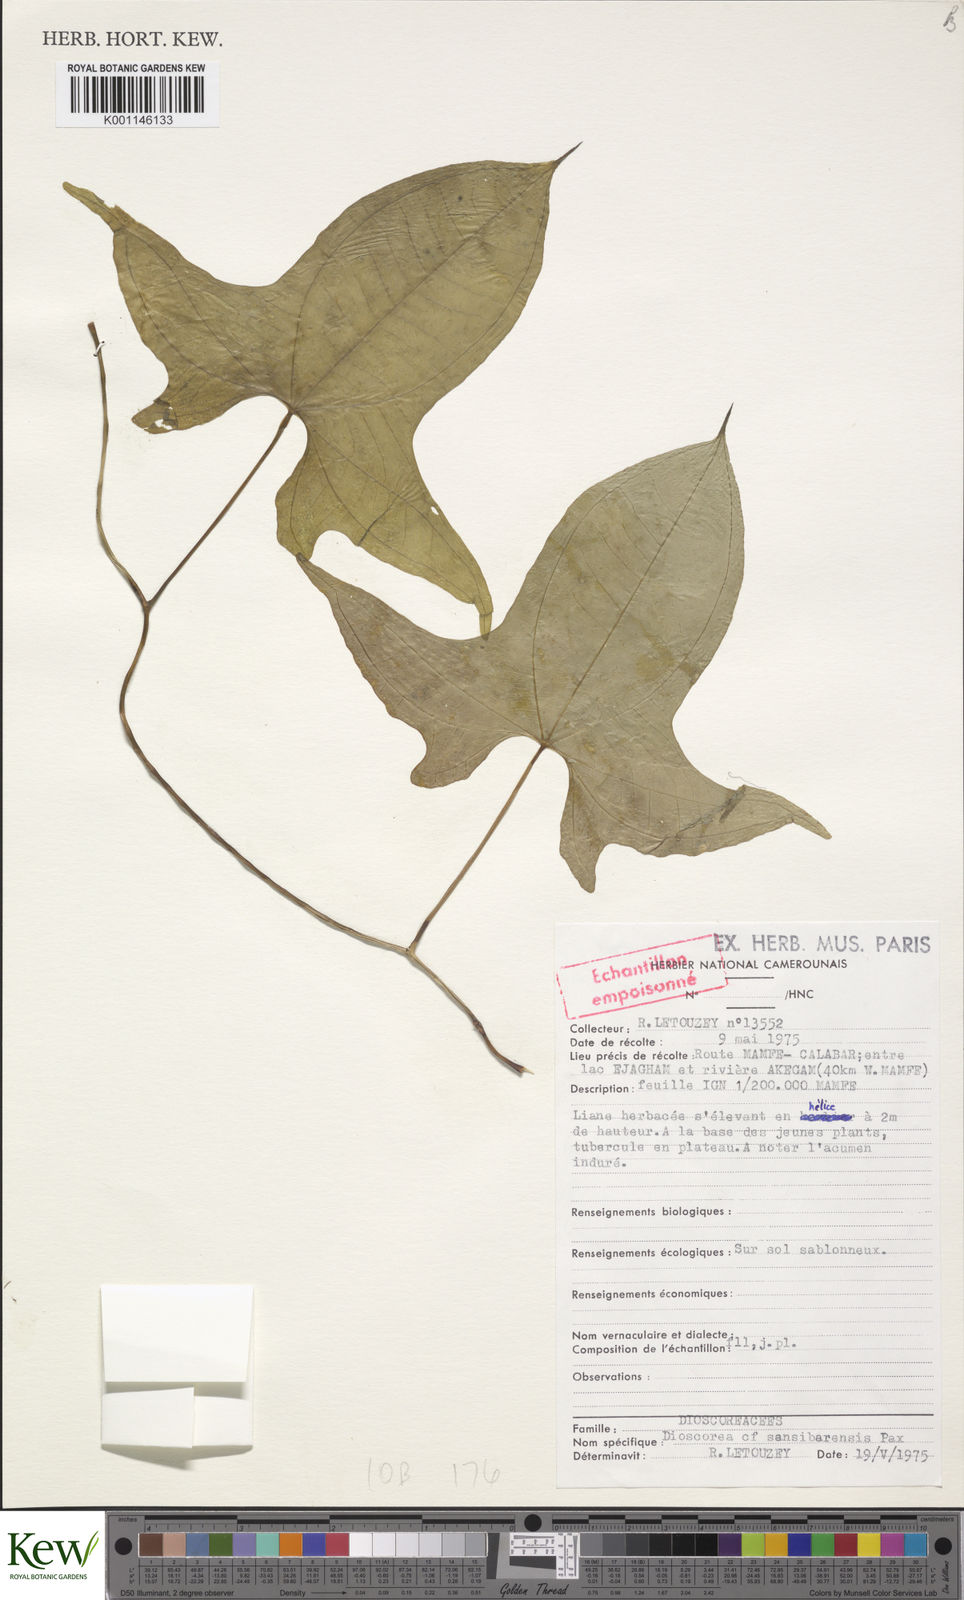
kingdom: Plantae
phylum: Tracheophyta
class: Liliopsida
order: Dioscoreales
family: Dioscoreaceae
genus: Dioscorea
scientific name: Dioscorea sansibarensis
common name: Zanzibar yam
